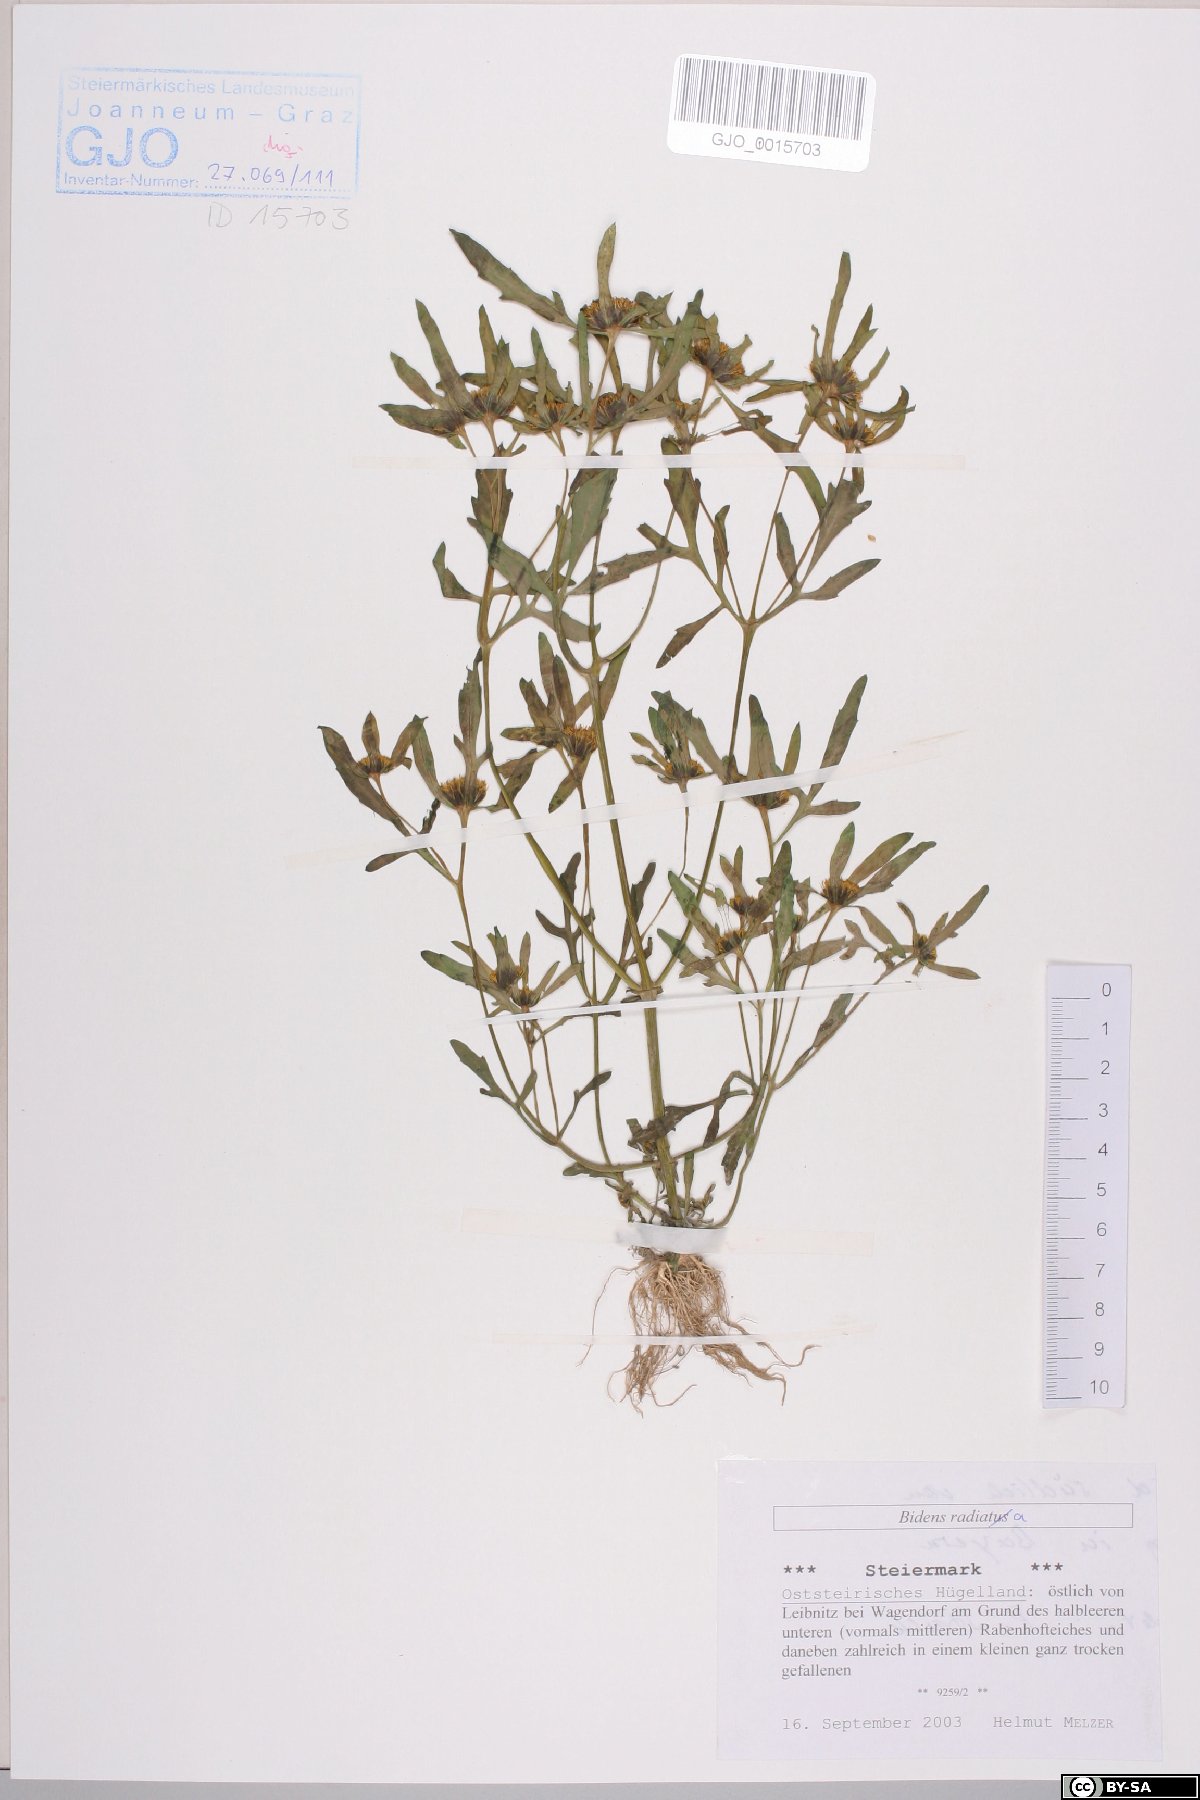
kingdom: Plantae
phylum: Tracheophyta
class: Magnoliopsida
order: Asterales
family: Asteraceae
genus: Bidens
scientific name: Bidens radiata
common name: Radiating bur-marigold
